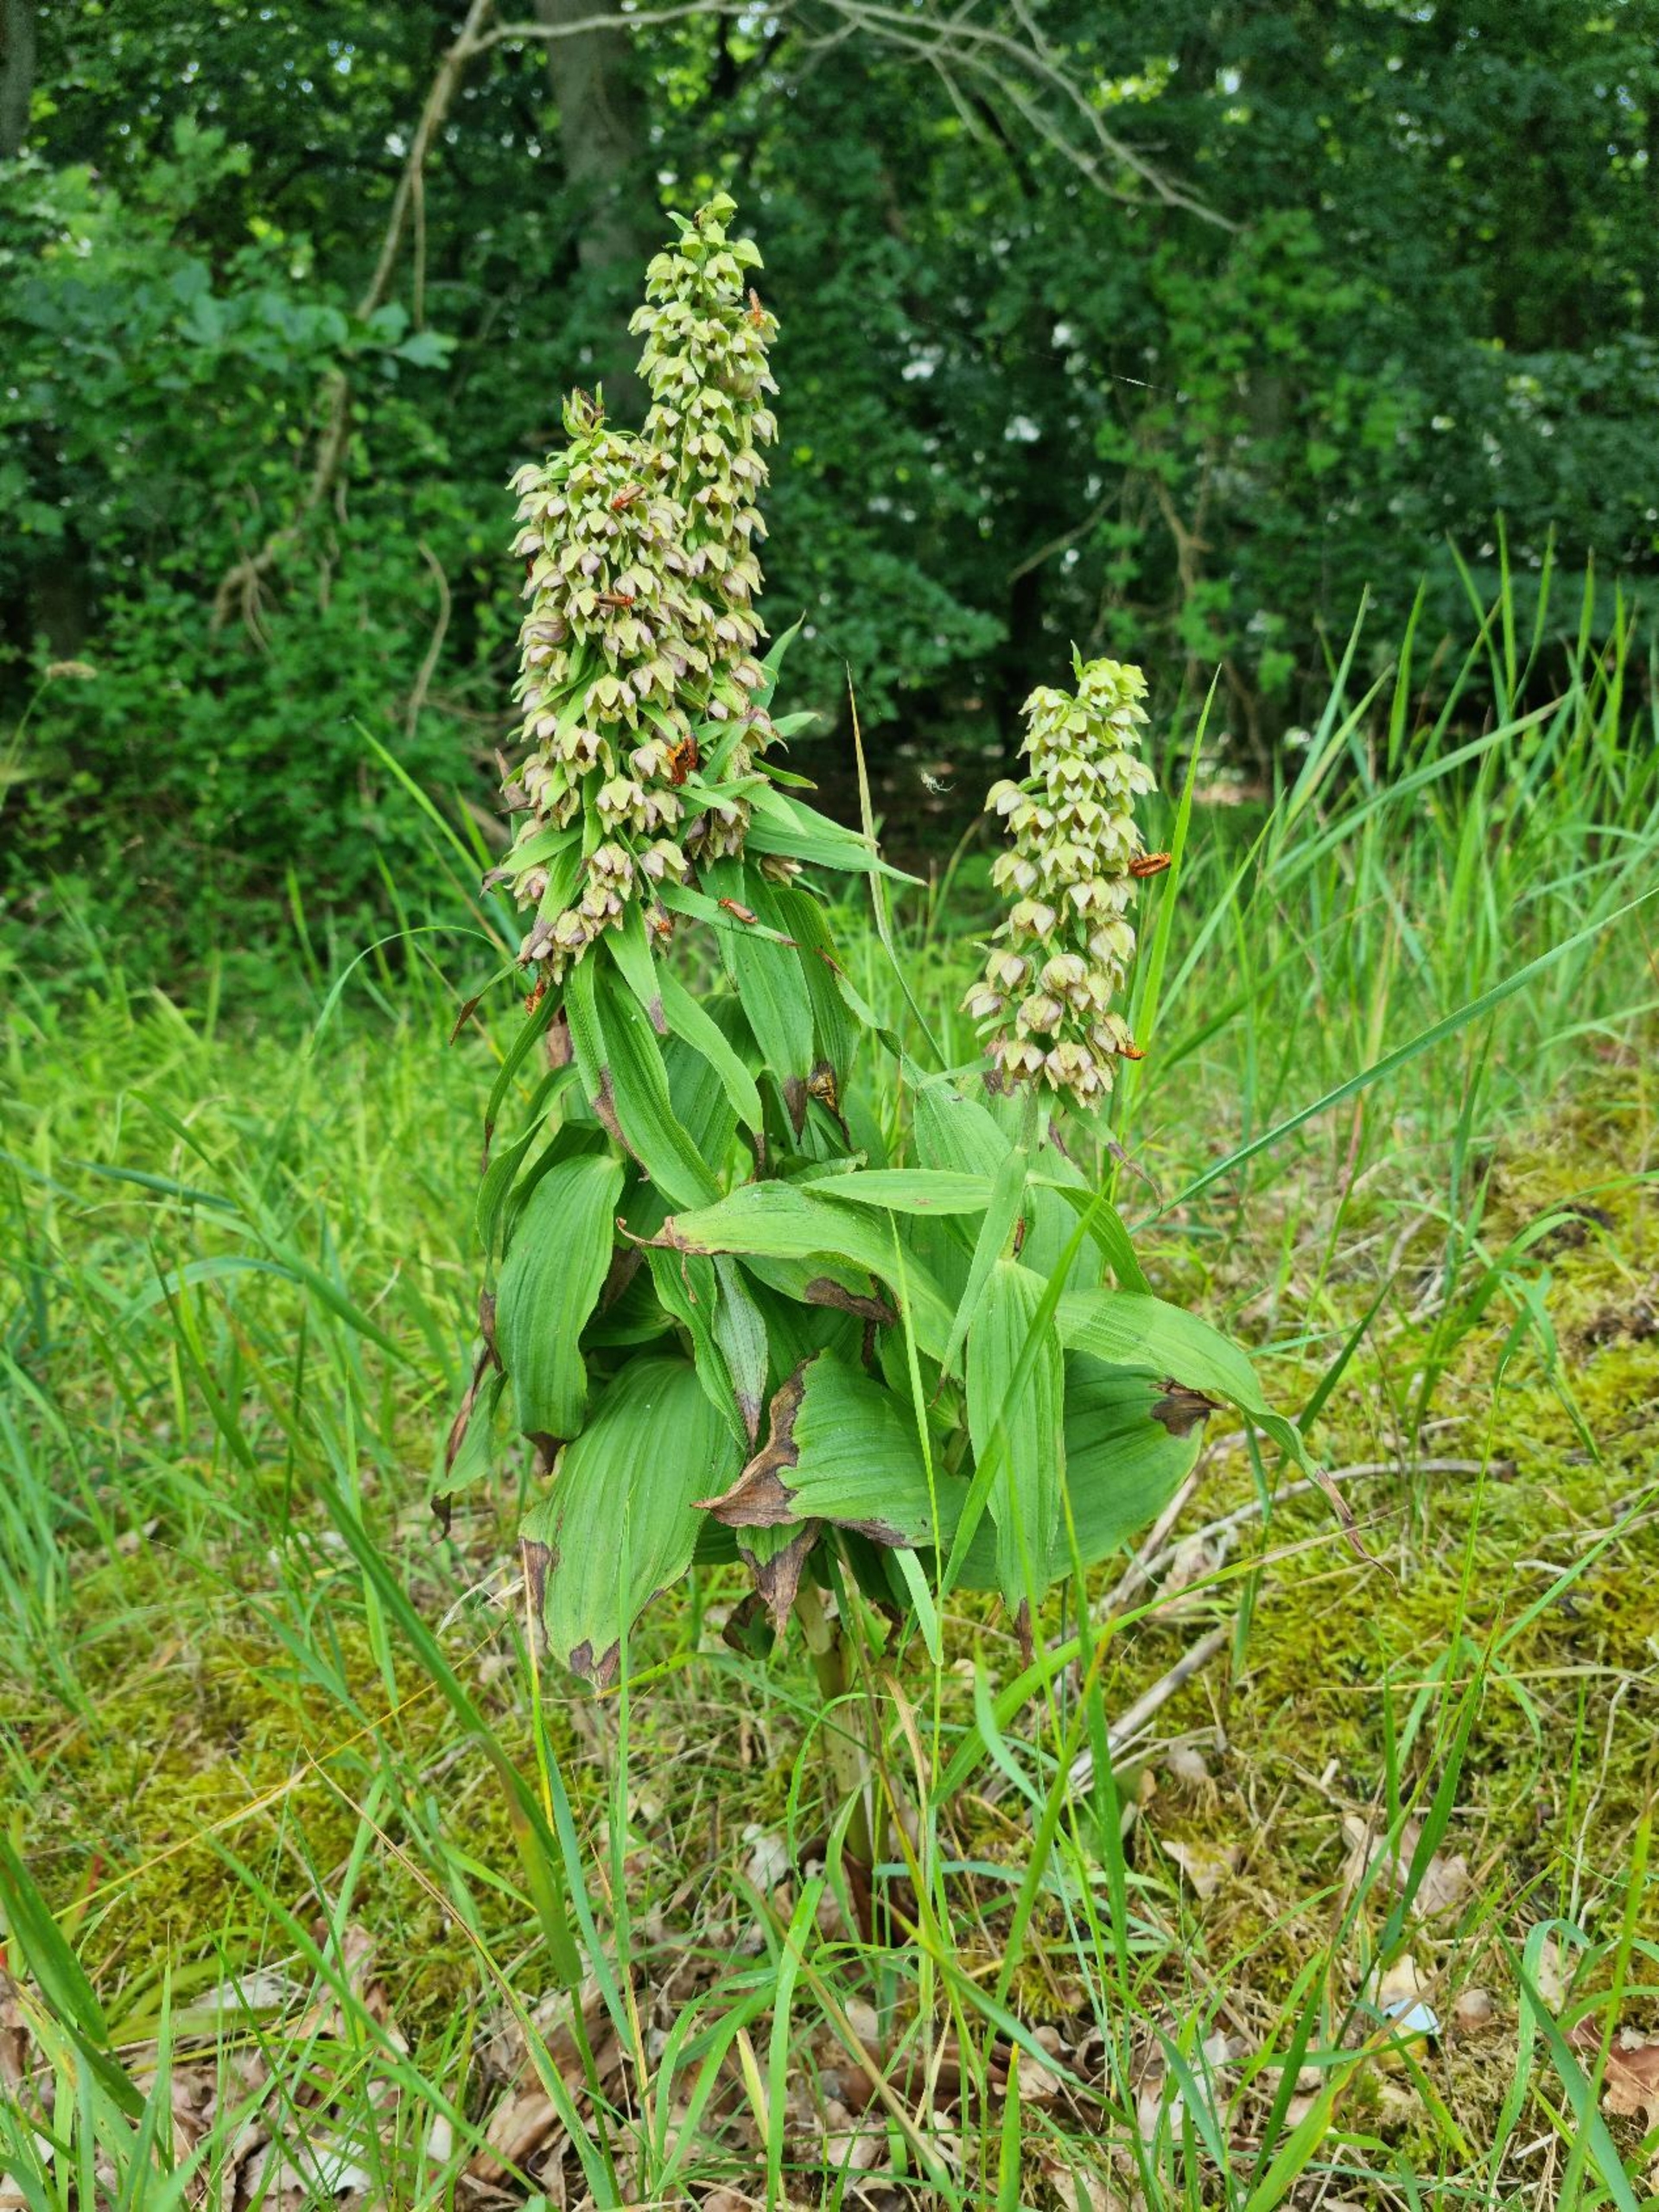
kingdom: Plantae
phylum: Tracheophyta
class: Liliopsida
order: Asparagales
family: Orchidaceae
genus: Epipactis
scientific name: Epipactis helleborine
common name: Skov-hullæbe
